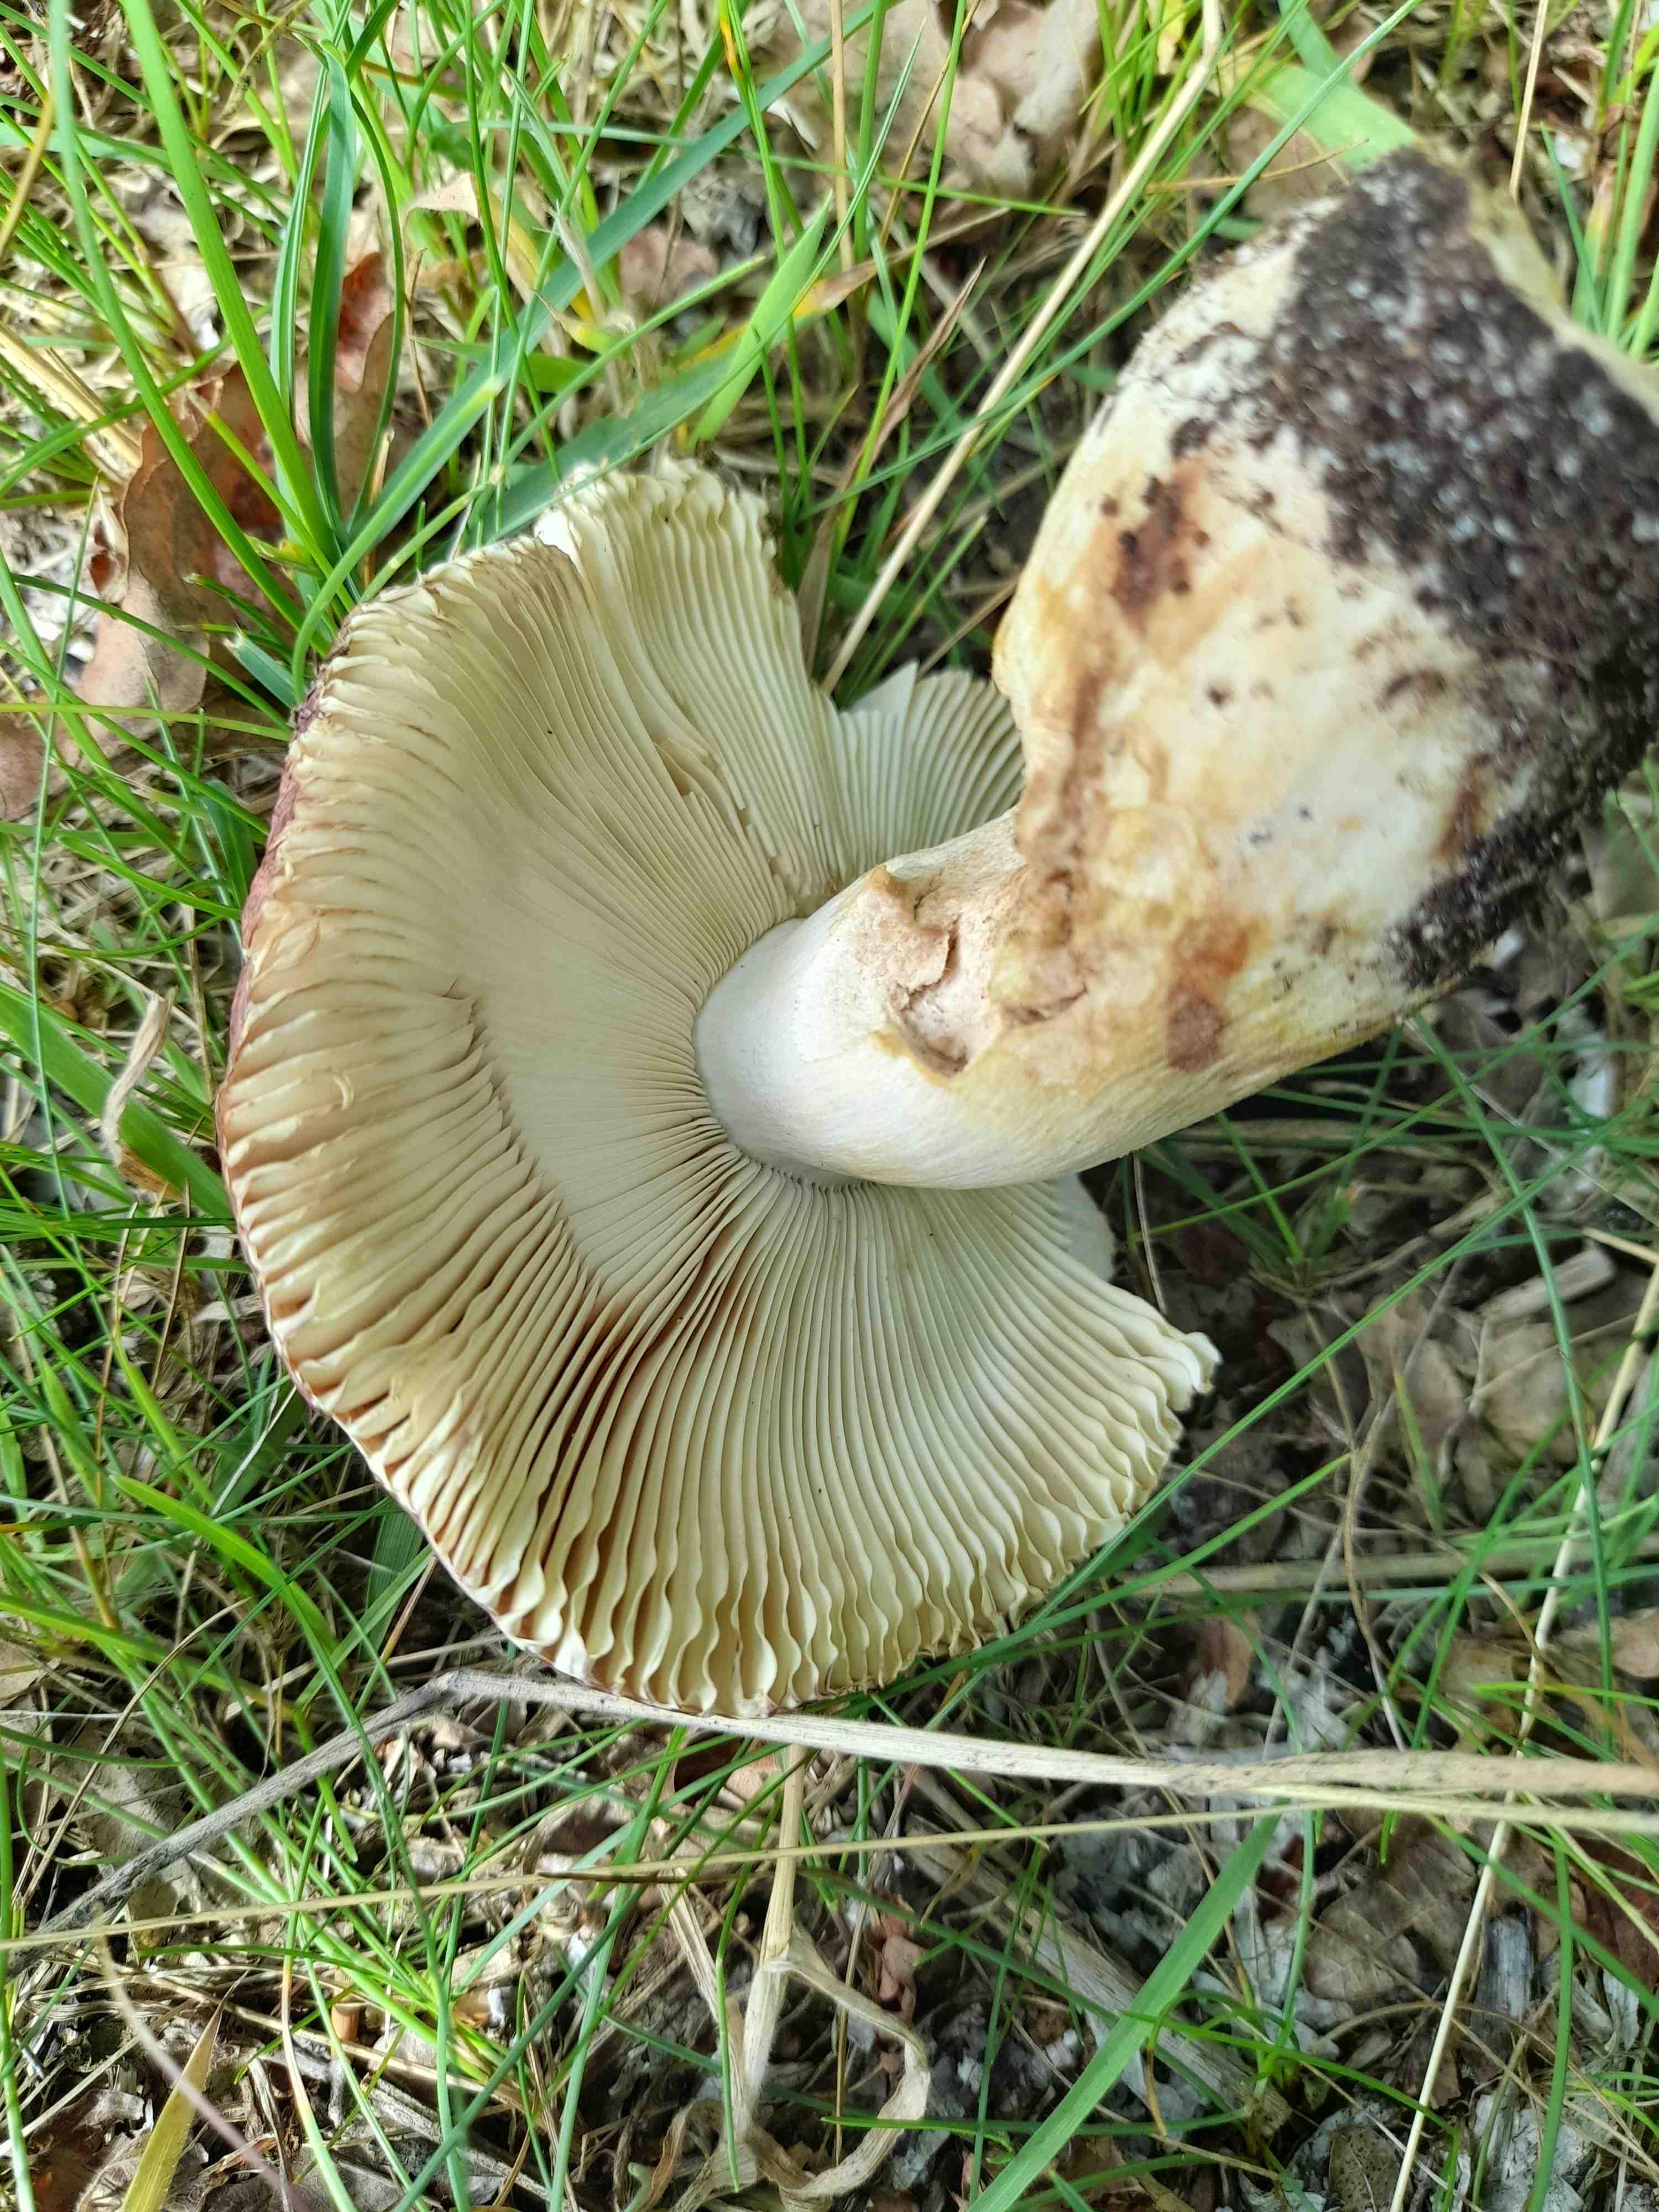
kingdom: Fungi
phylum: Basidiomycota
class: Agaricomycetes
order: Russulales
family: Russulaceae
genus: Russula
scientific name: Russula
